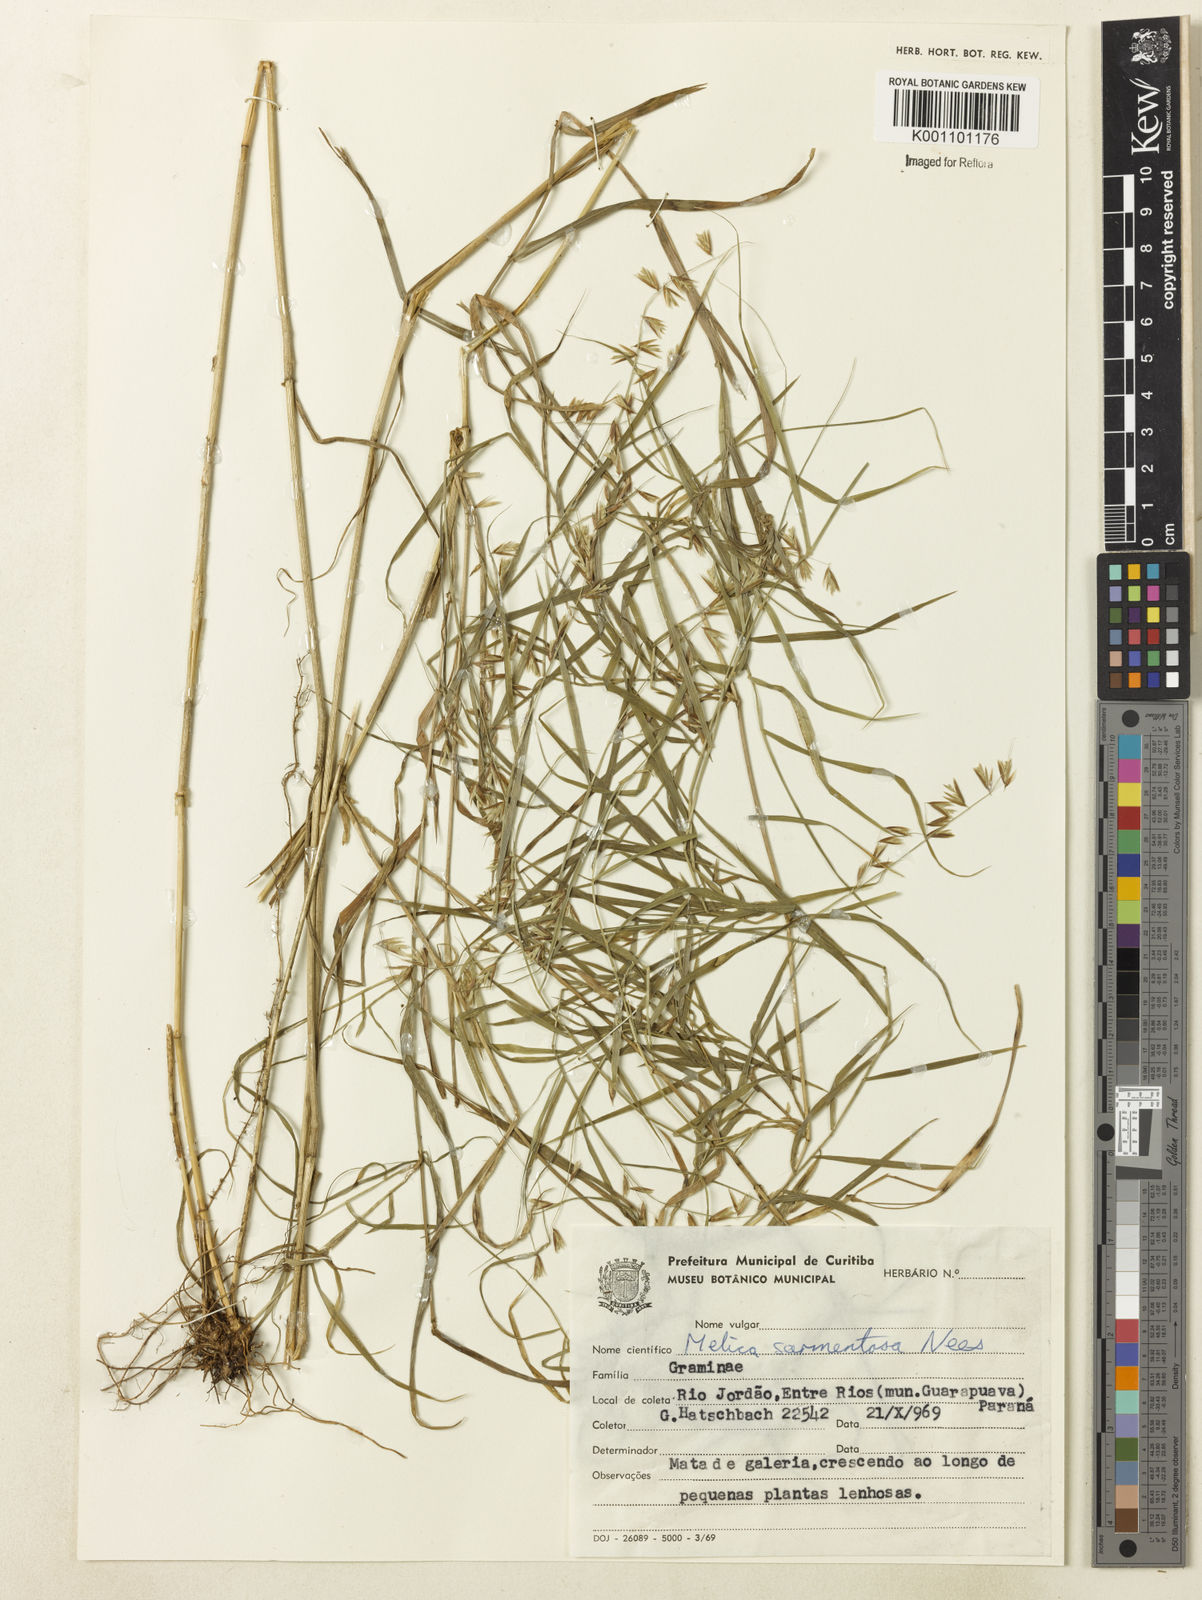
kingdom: Plantae
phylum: Tracheophyta
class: Liliopsida
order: Poales
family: Poaceae
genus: Melica
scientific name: Melica sarmentosa
